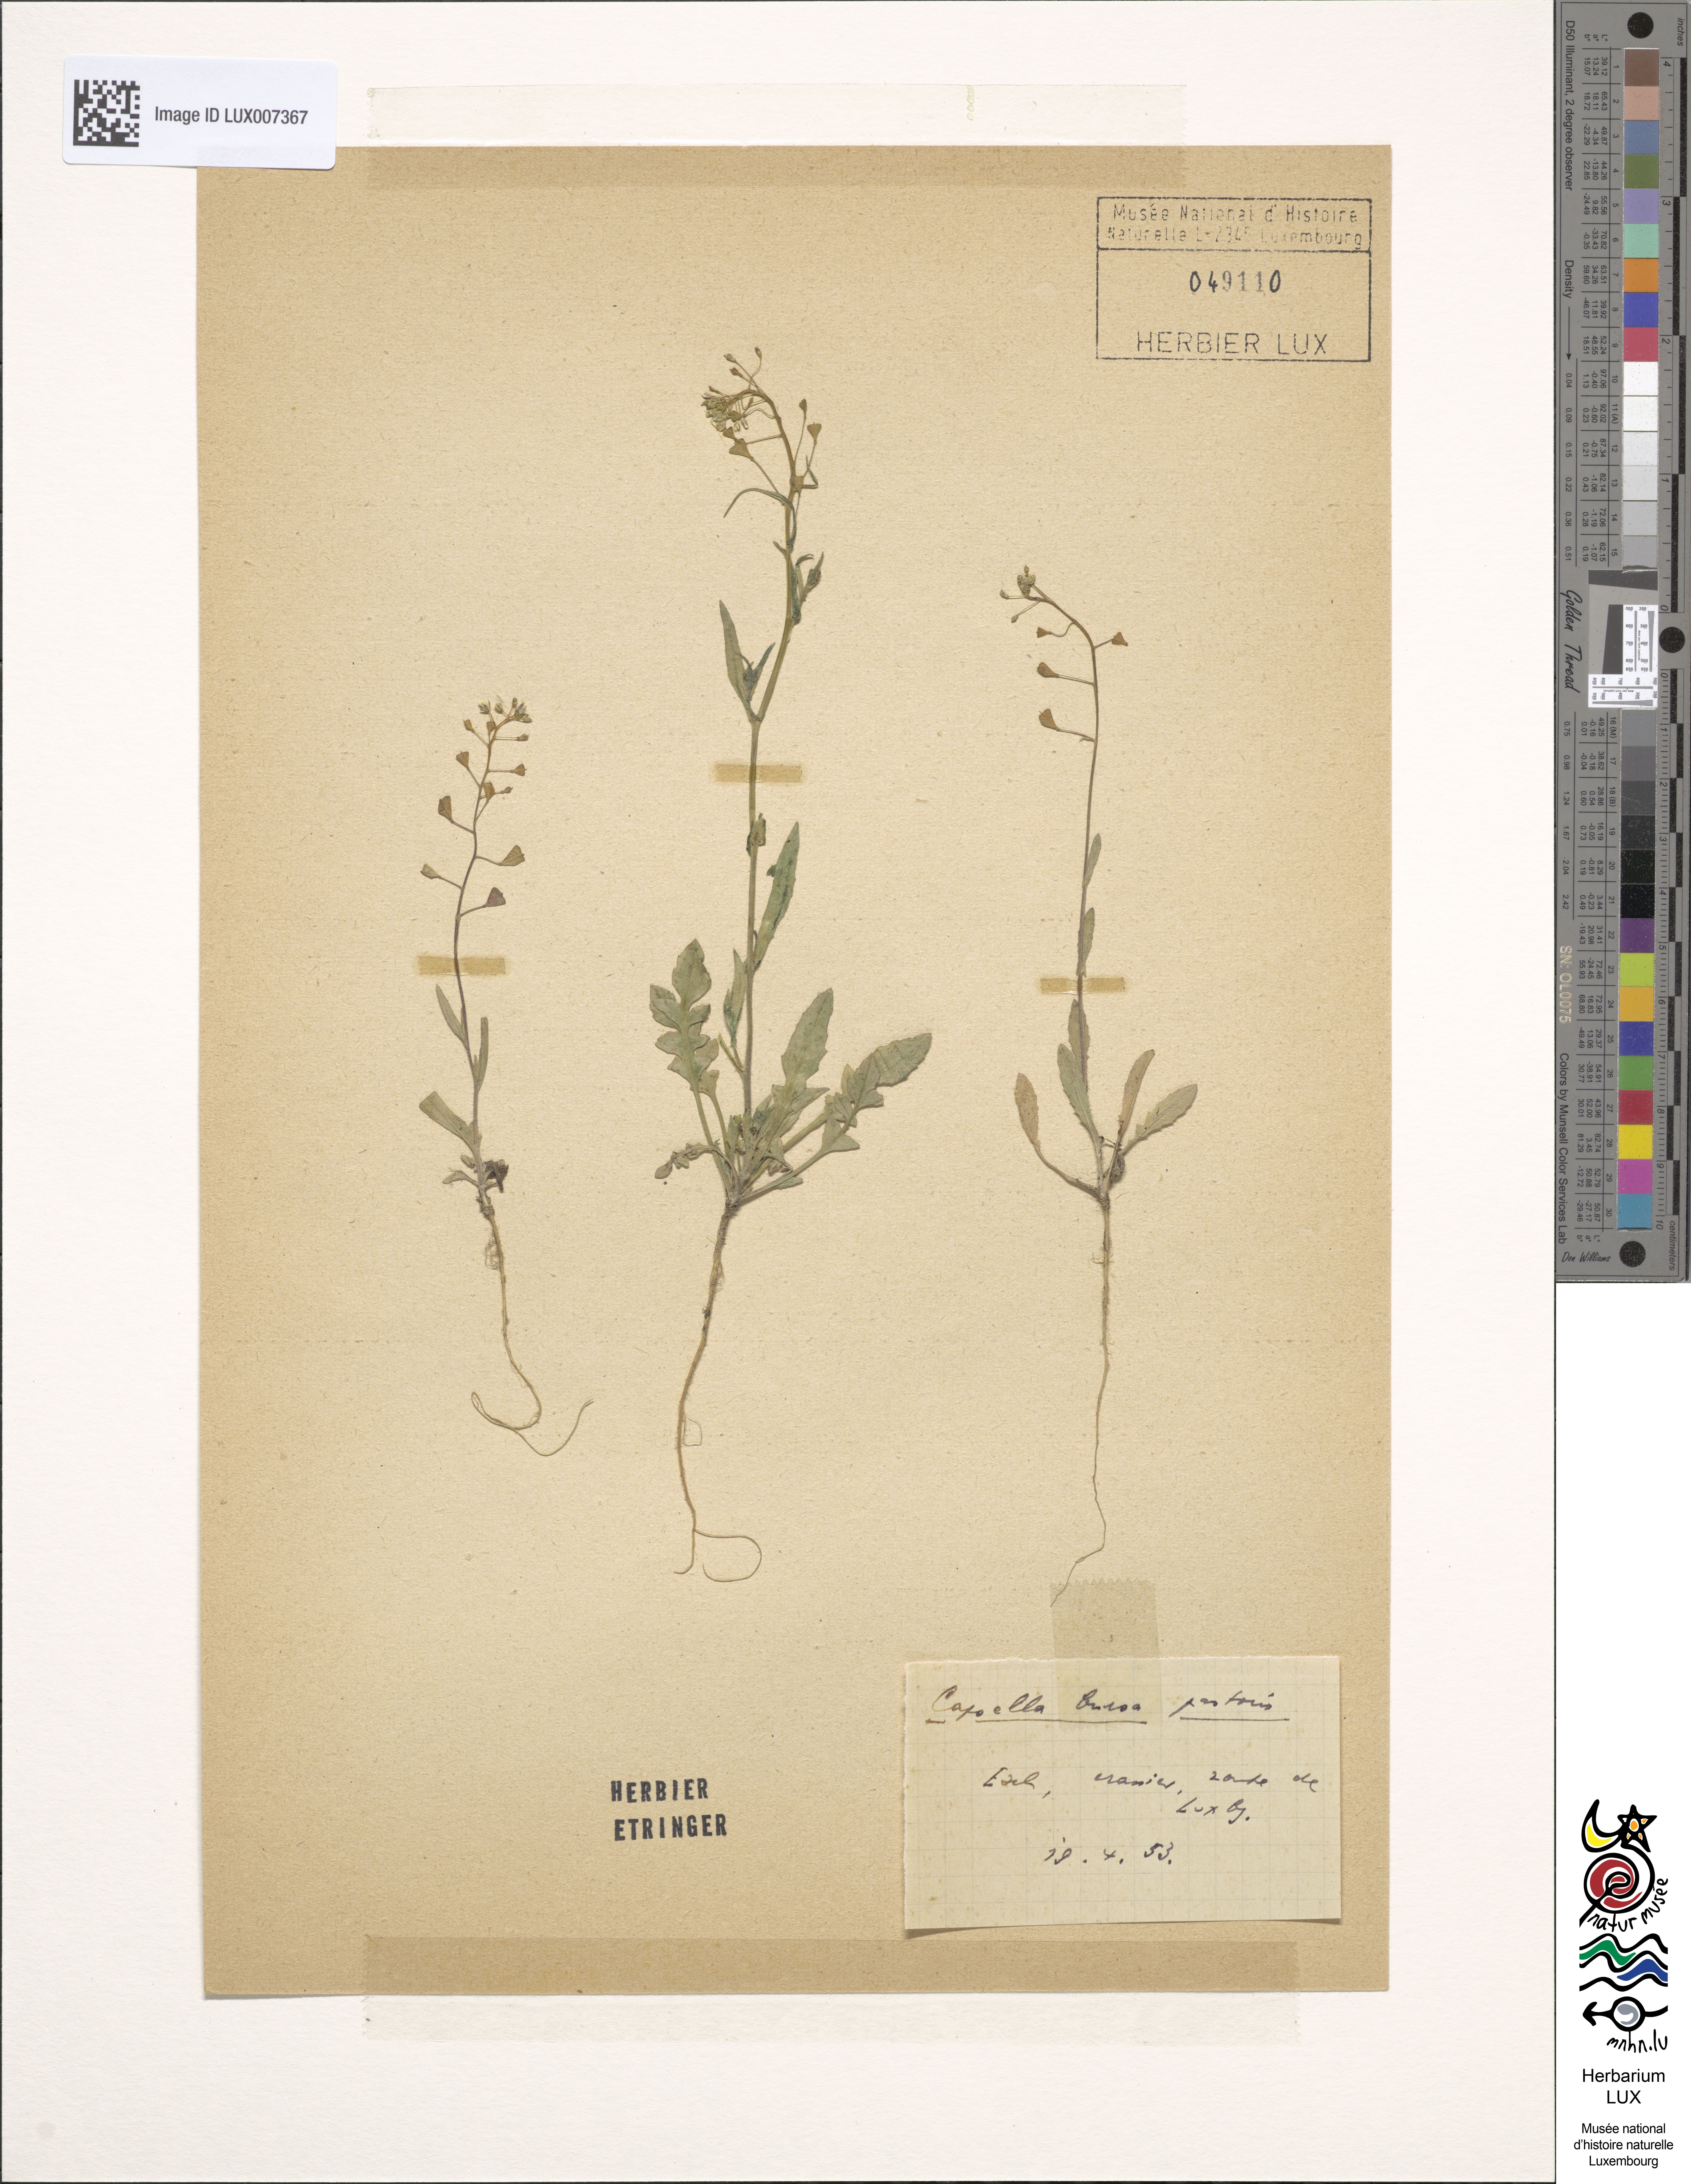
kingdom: Plantae
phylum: Tracheophyta
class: Magnoliopsida
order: Brassicales
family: Brassicaceae
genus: Capsella
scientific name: Capsella bursa-pastoris
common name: Shepherd's purse
